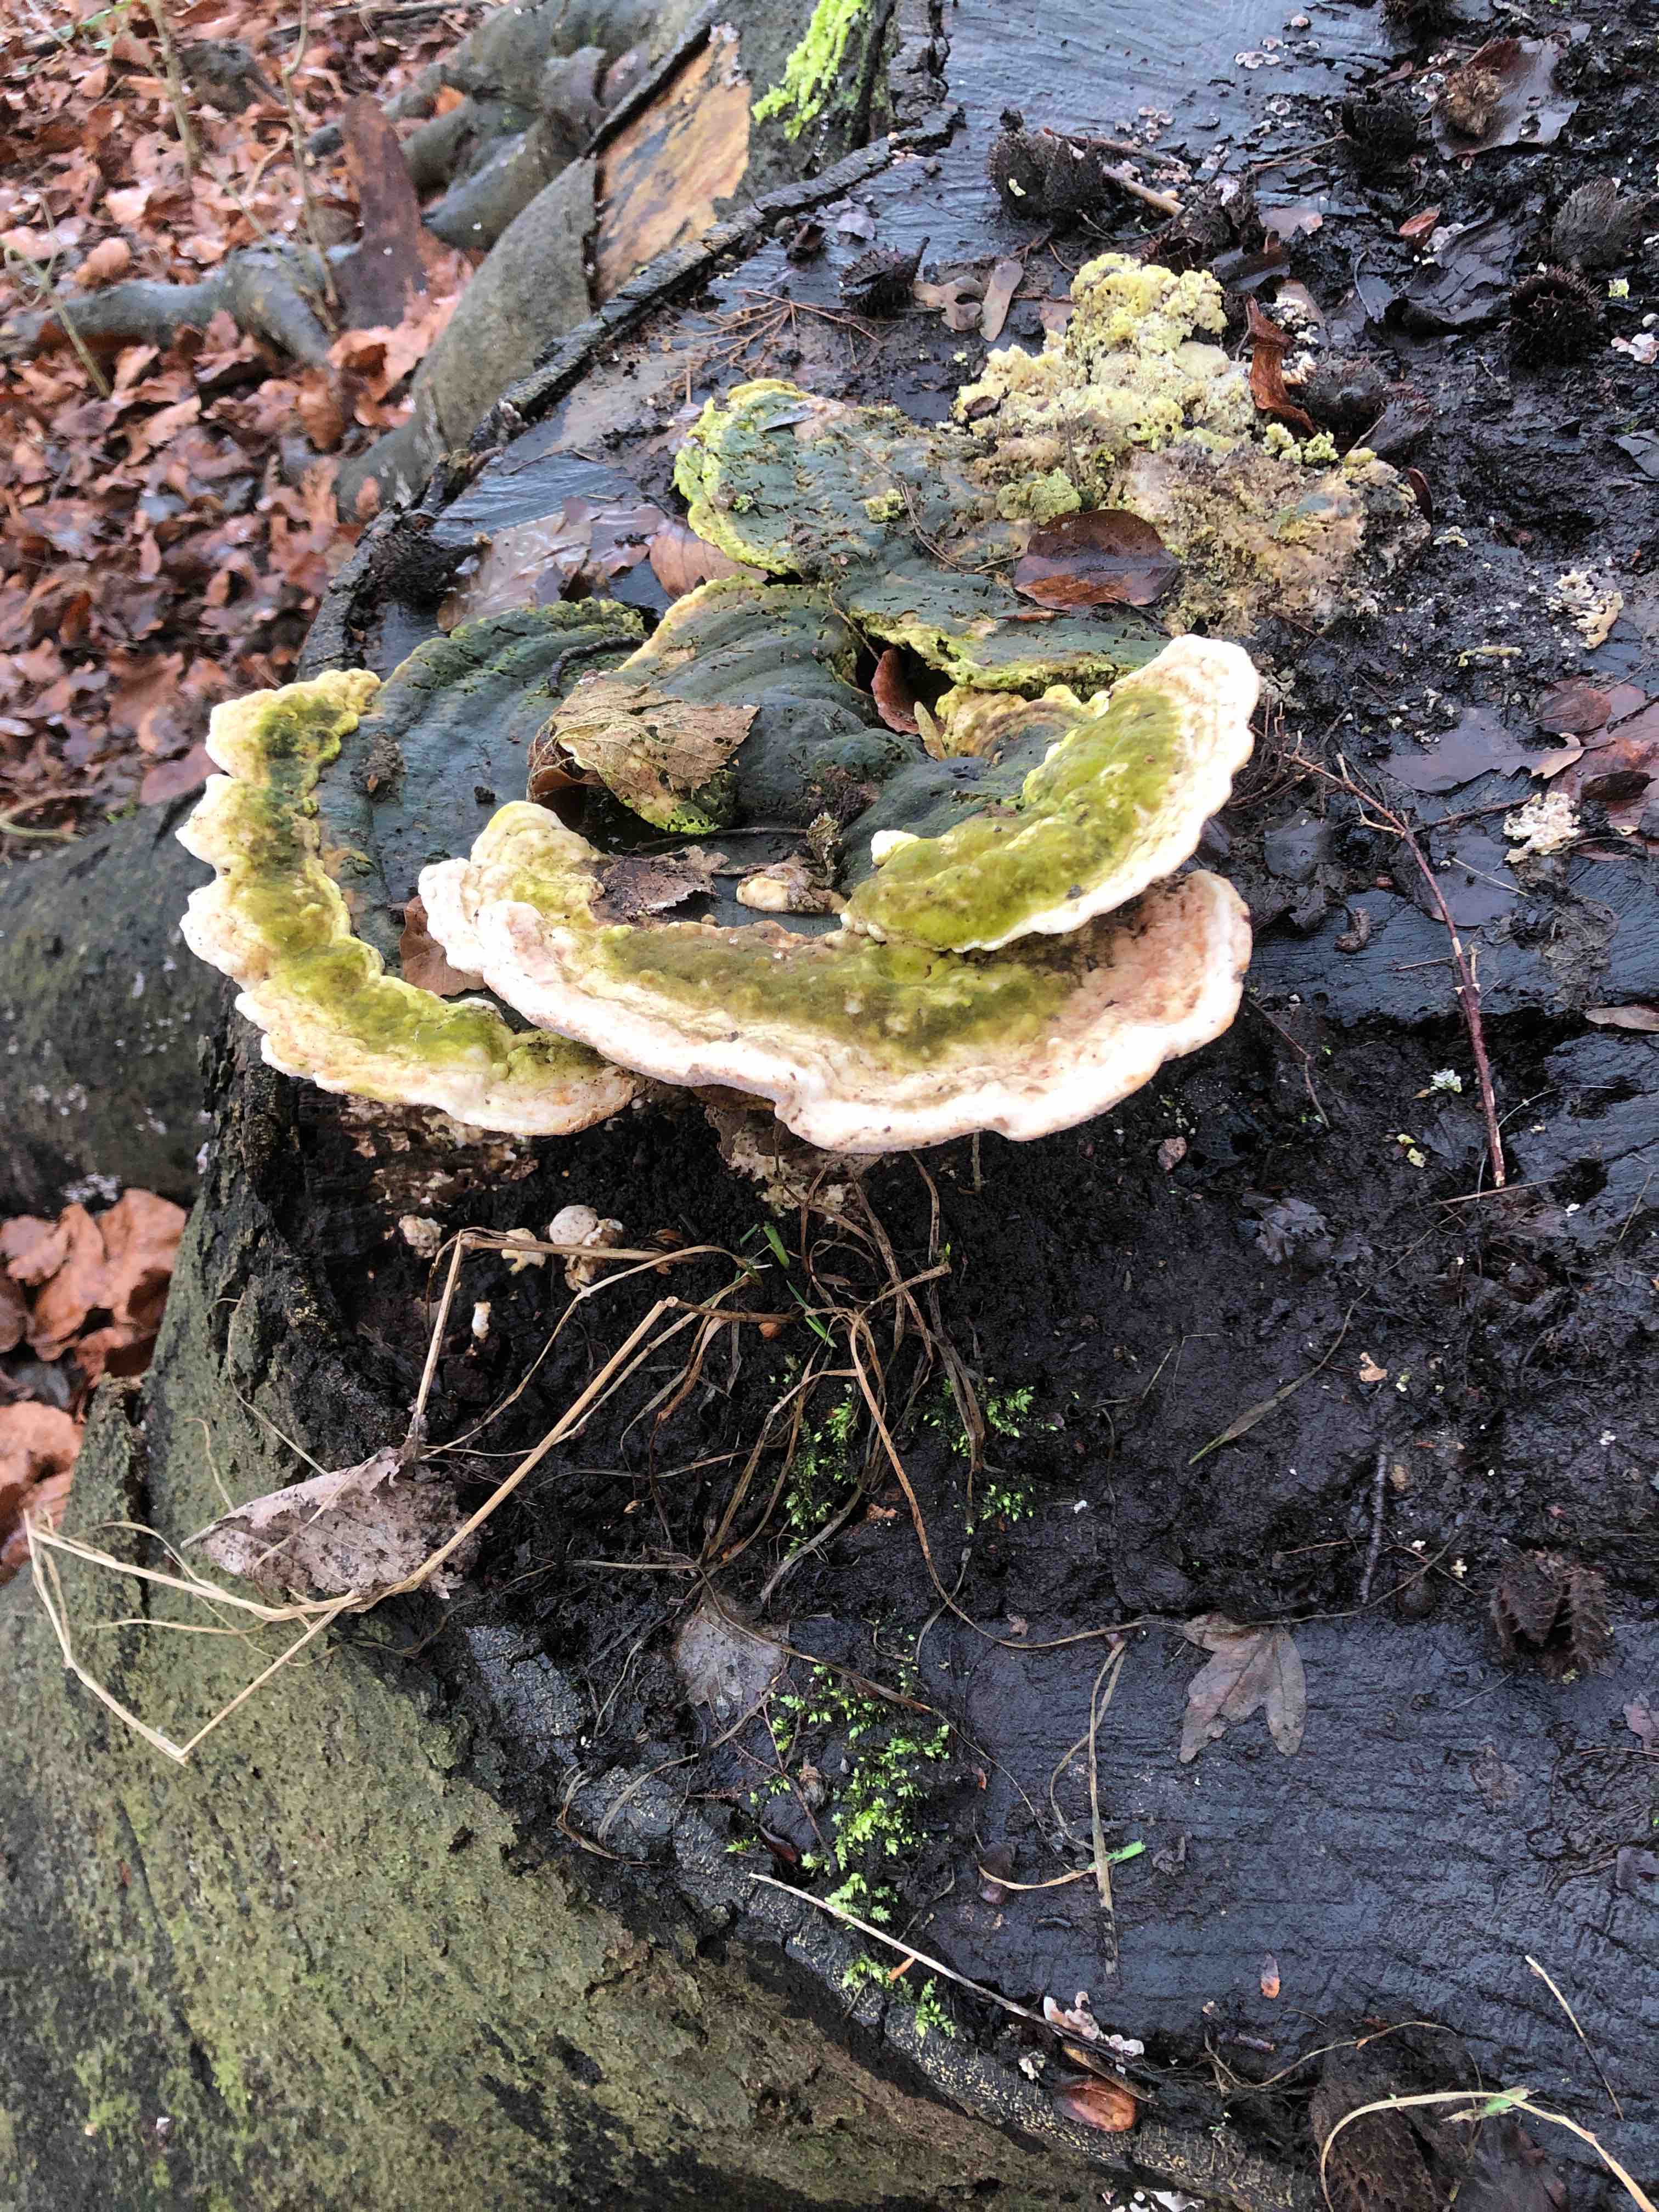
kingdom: Fungi
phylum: Basidiomycota
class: Agaricomycetes
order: Polyporales
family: Polyporaceae
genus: Trametes
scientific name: Trametes gibbosa
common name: puklet læderporesvamp
